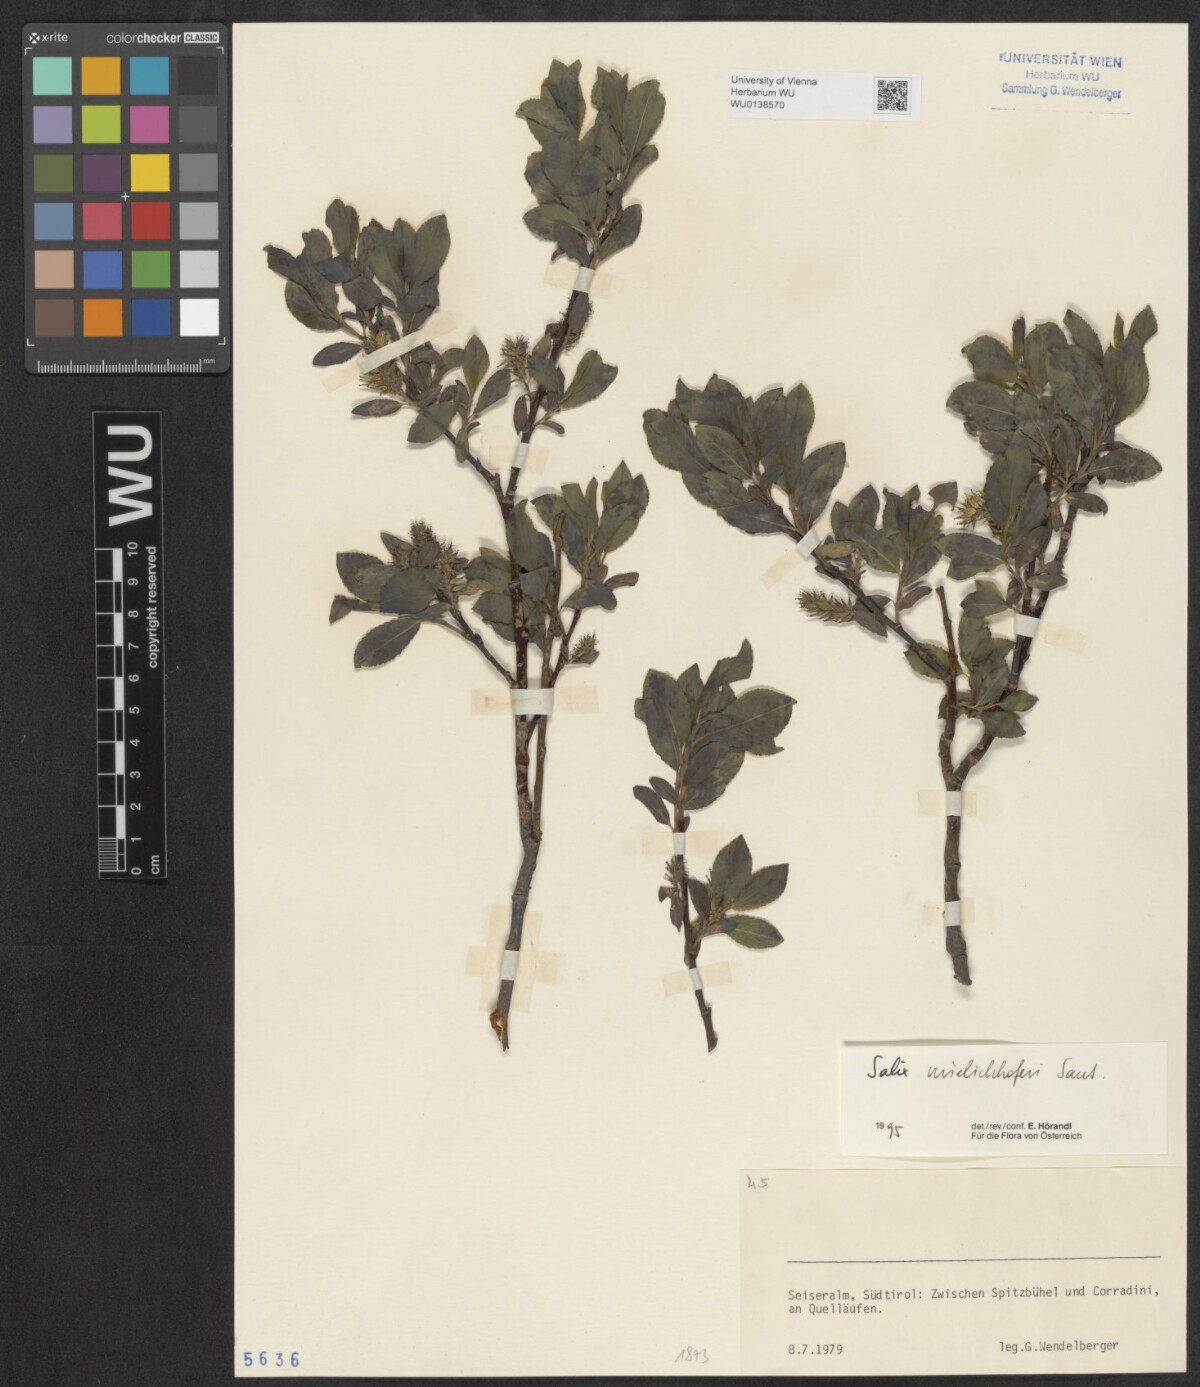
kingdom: Plantae
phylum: Tracheophyta
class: Magnoliopsida
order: Malpighiales
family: Salicaceae
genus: Salix
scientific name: Salix mielichhoferi
